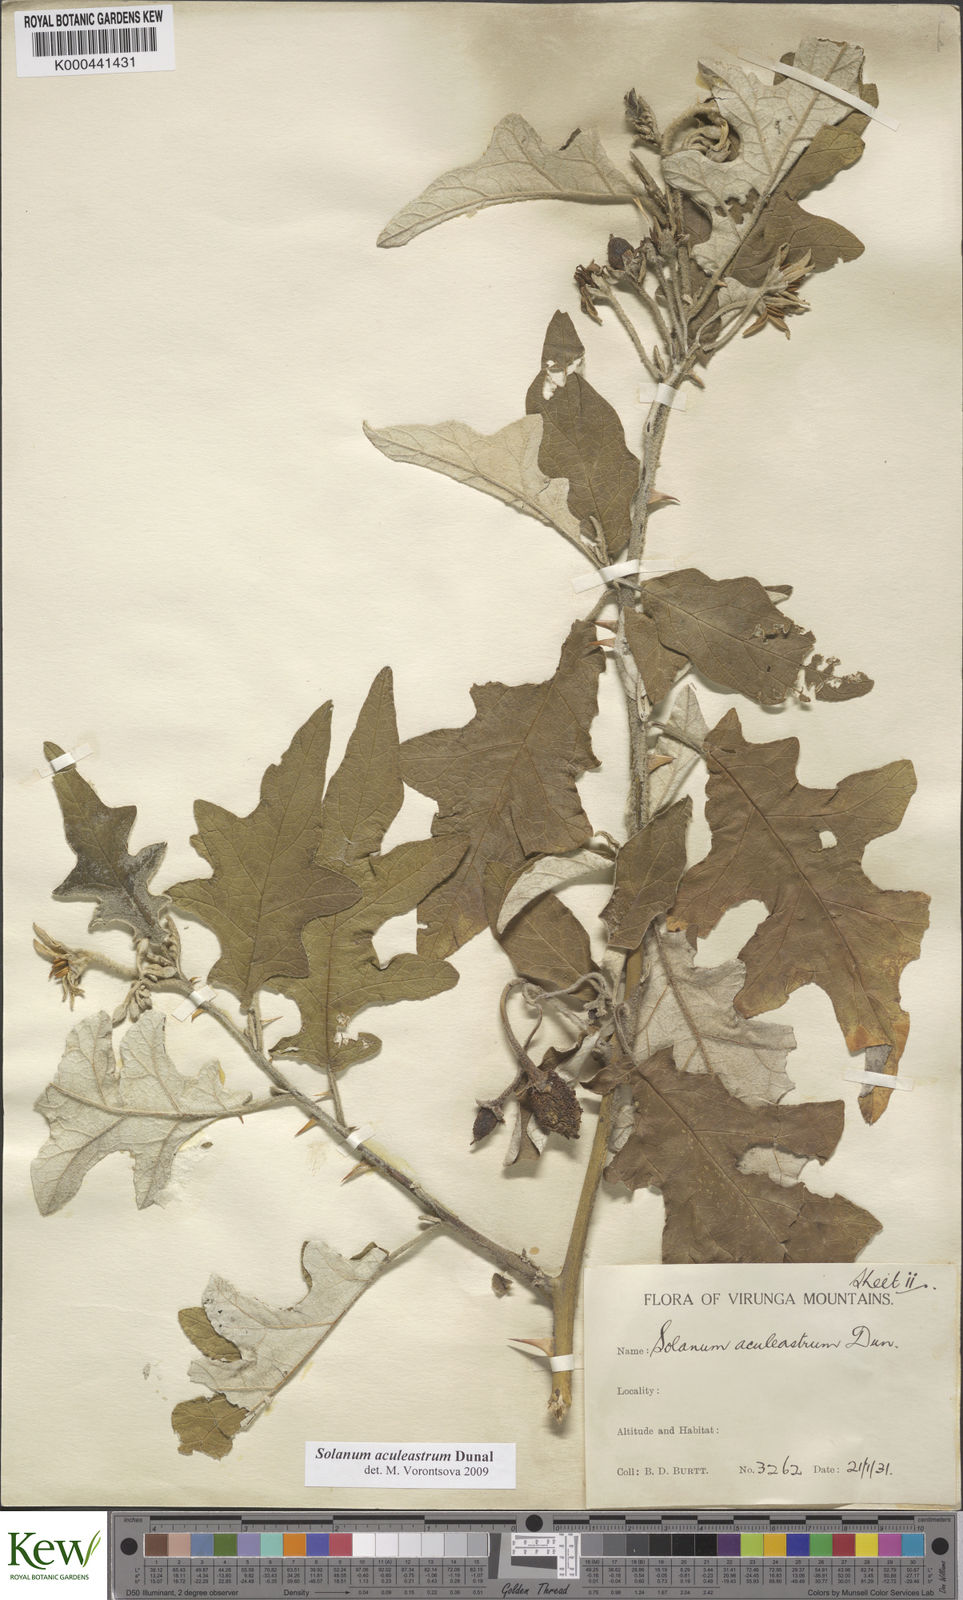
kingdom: Plantae
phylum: Tracheophyta
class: Magnoliopsida
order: Solanales
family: Solanaceae
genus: Solanum
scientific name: Solanum aculeastrum
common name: Goat bitter-apple
